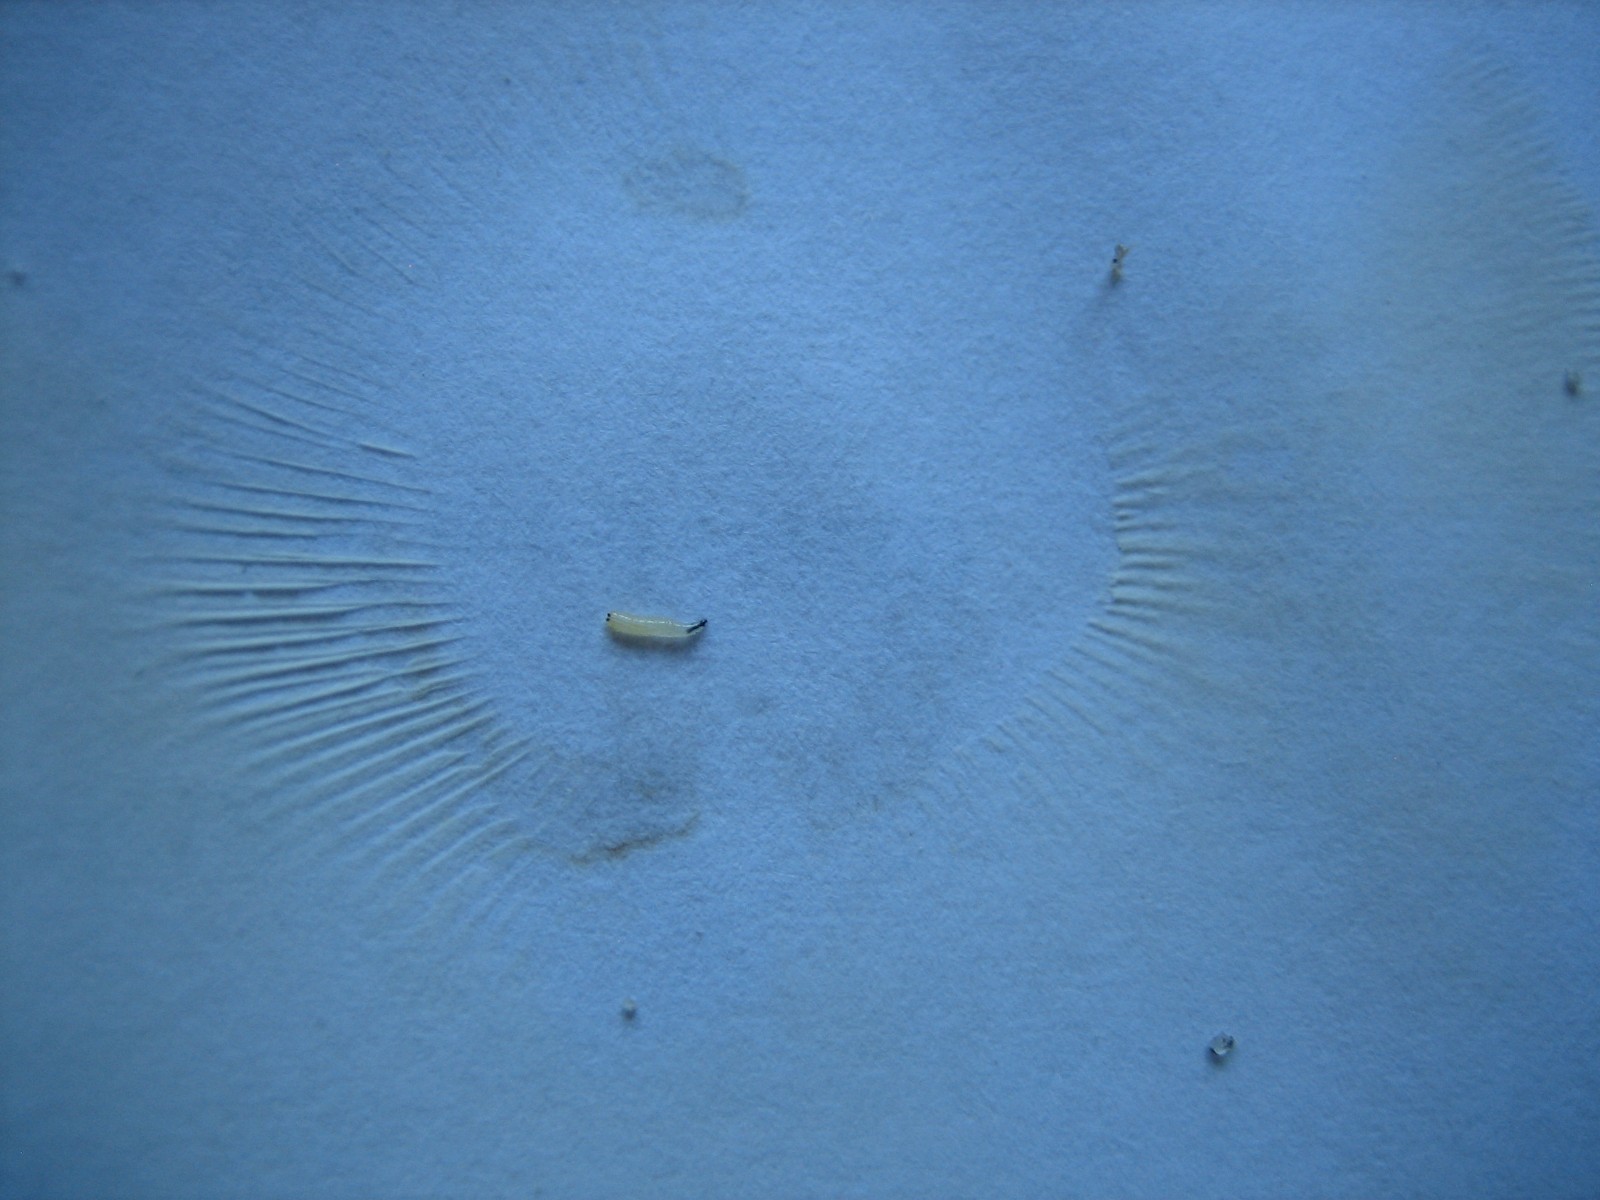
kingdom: Fungi
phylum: Basidiomycota
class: Agaricomycetes
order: Russulales
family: Russulaceae
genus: Lactarius
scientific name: Lactarius pubescens
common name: dunet mælkehat
